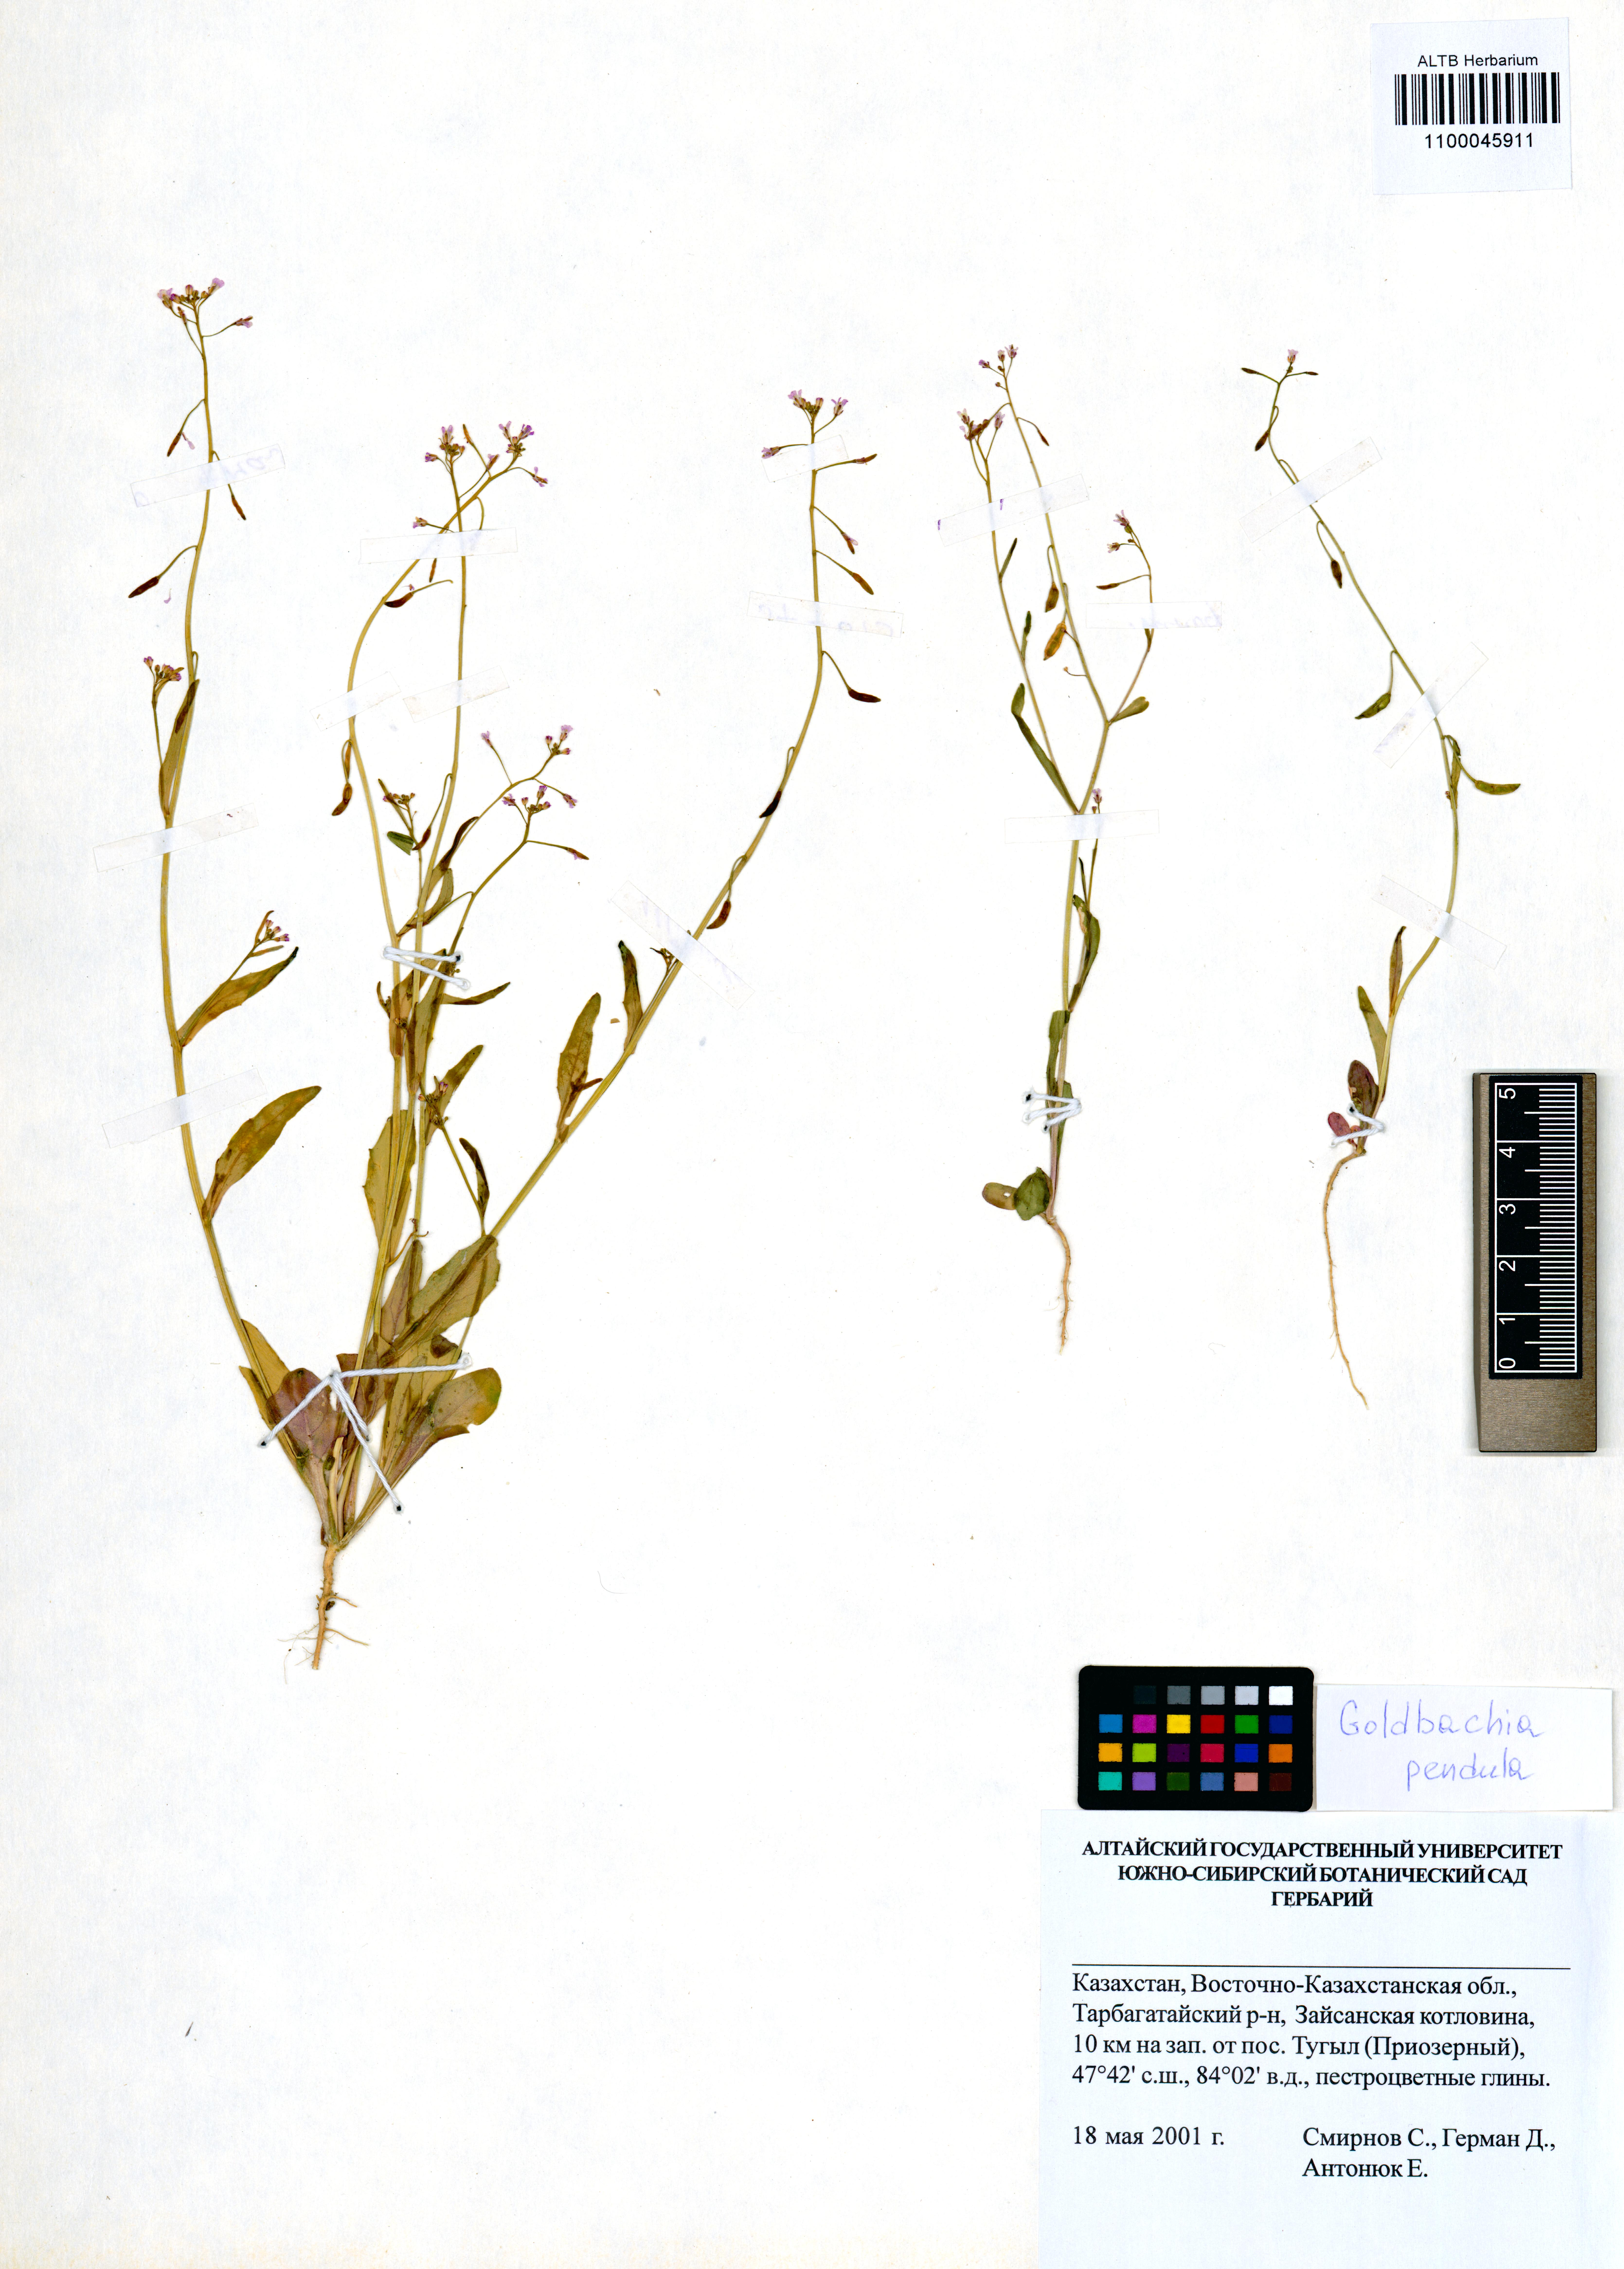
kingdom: Plantae
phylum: Tracheophyta
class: Magnoliopsida
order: Brassicales
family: Brassicaceae
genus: Goldbachia
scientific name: Goldbachia pendula
